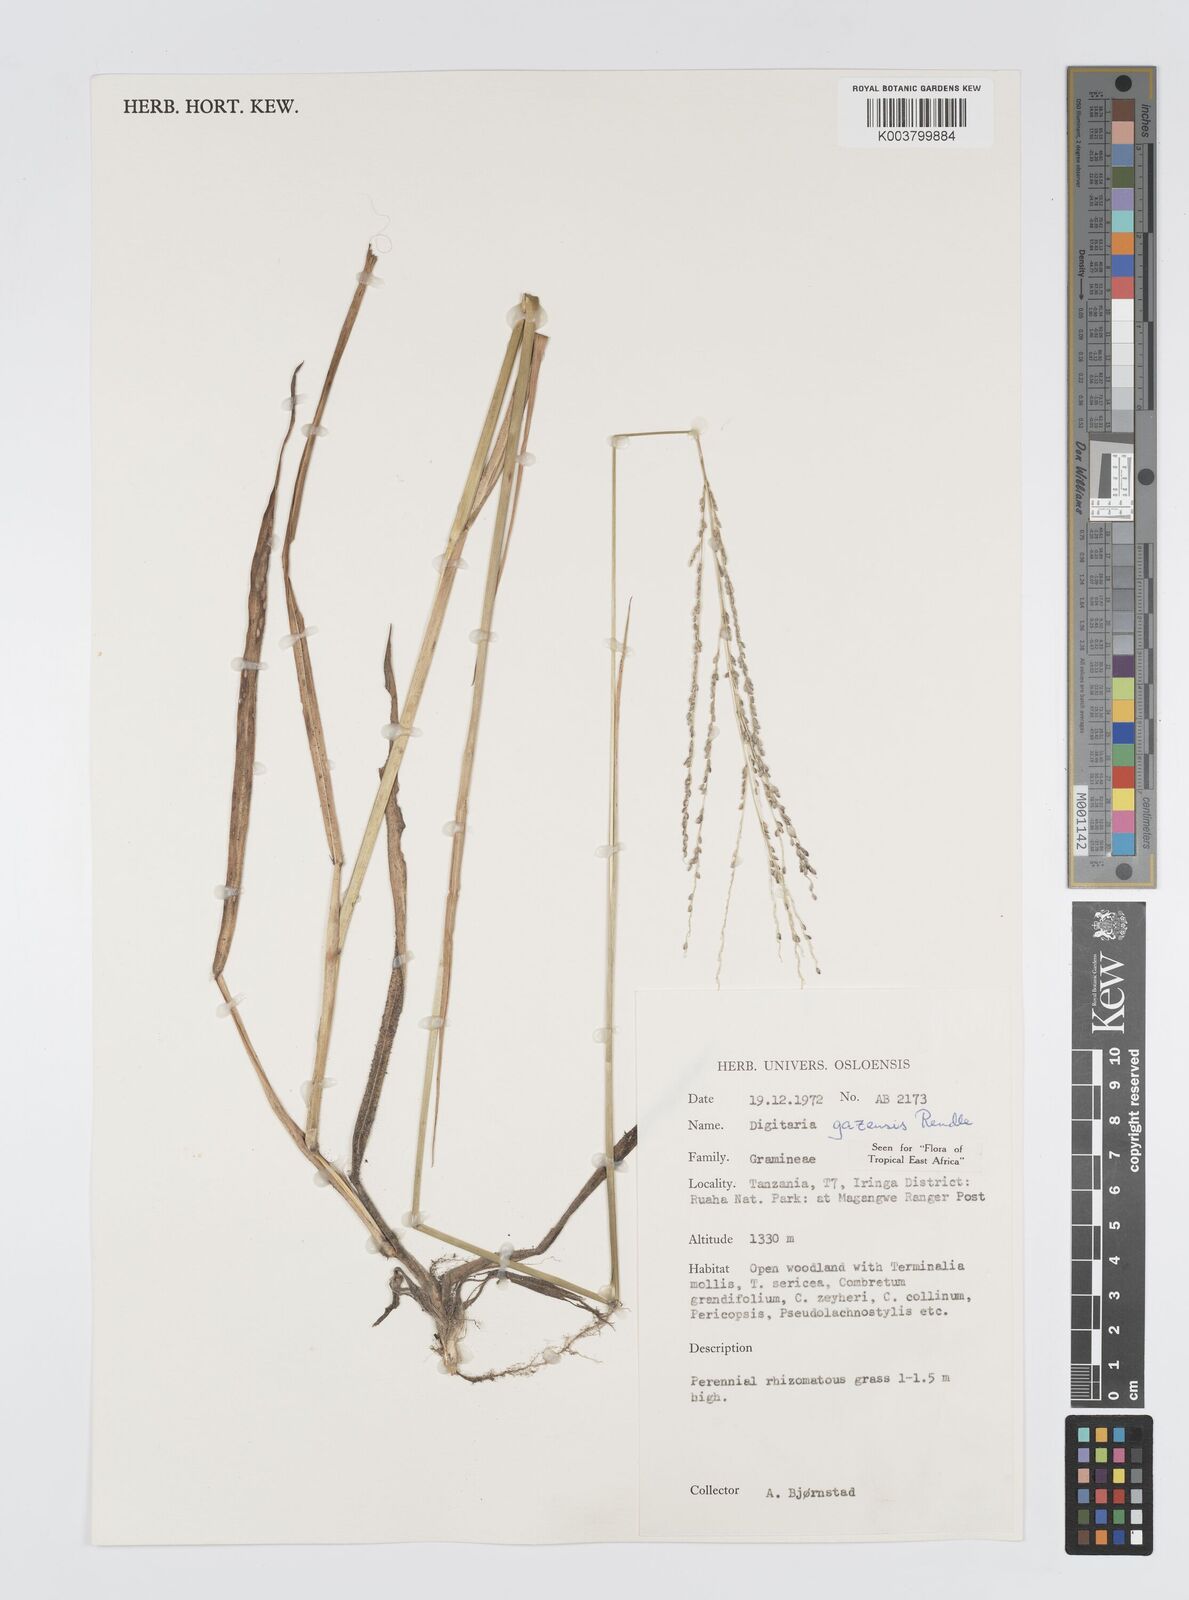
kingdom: Plantae
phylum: Tracheophyta
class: Liliopsida
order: Poales
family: Poaceae
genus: Digitaria
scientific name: Digitaria gazensis
